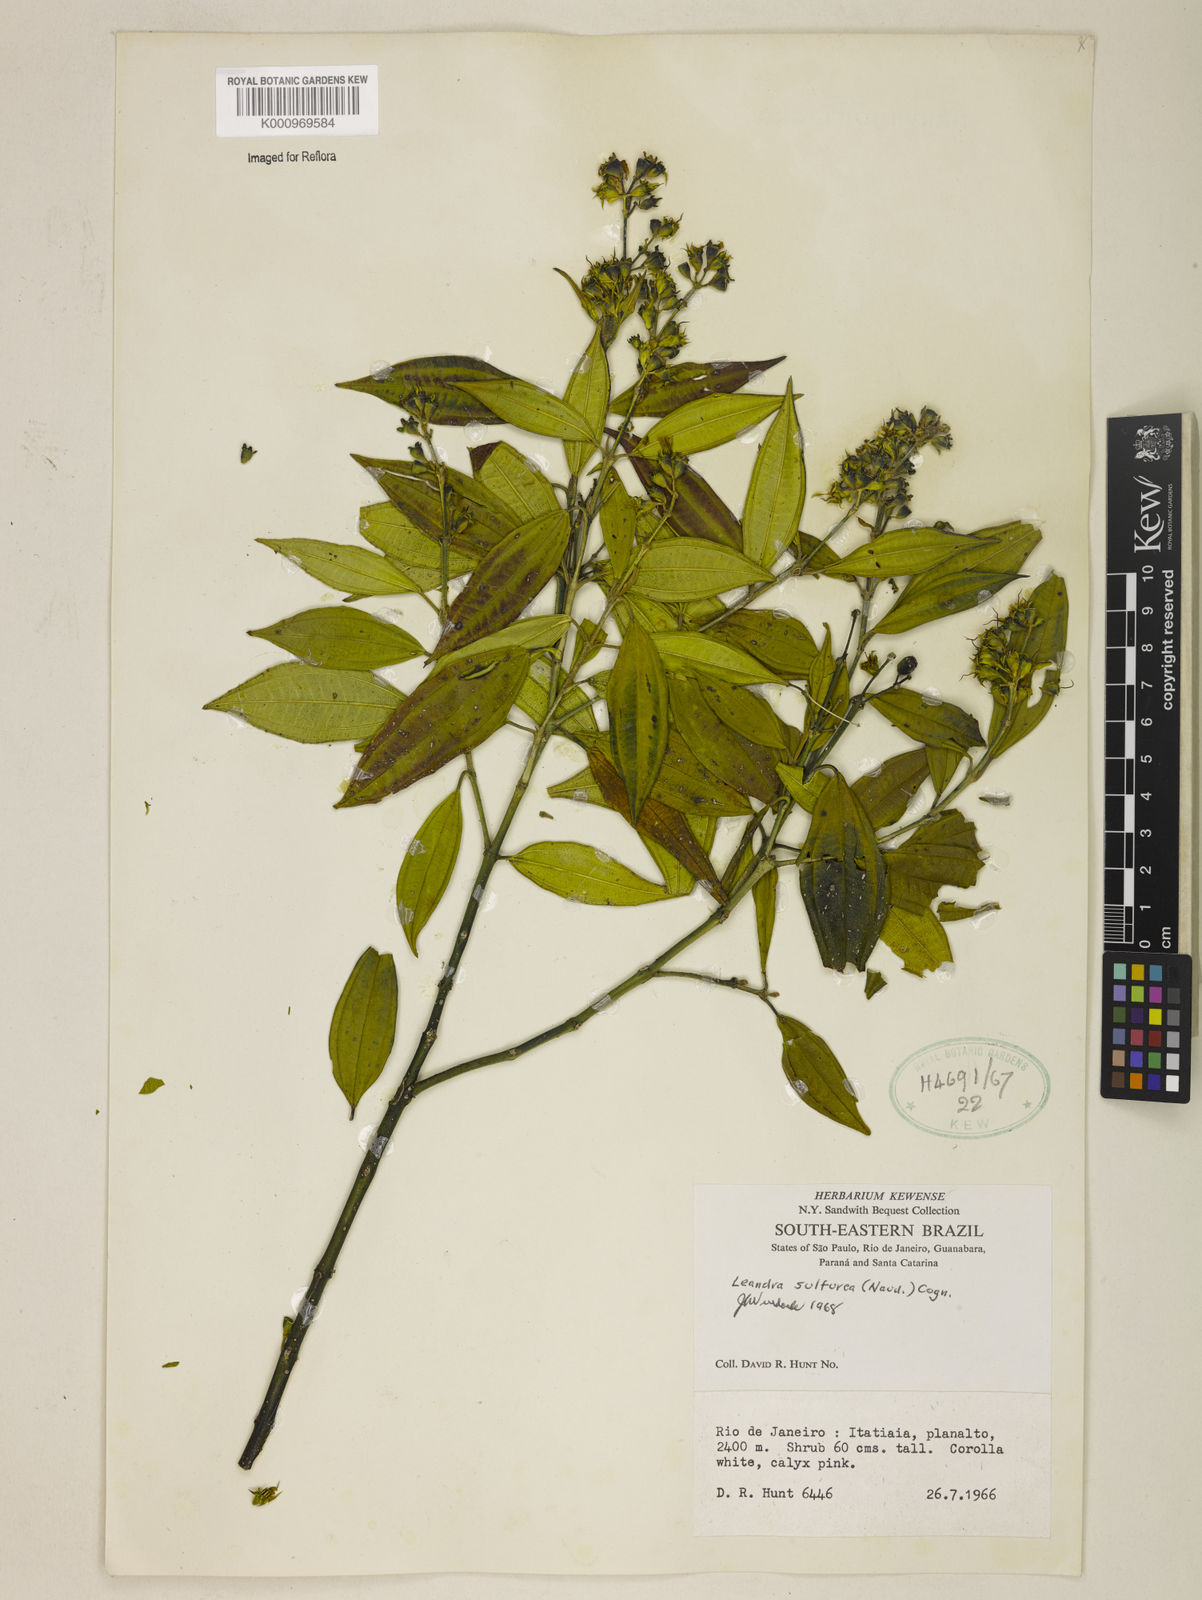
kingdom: Plantae
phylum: Tracheophyta
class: Magnoliopsida
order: Myrtales
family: Melastomataceae
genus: Miconia
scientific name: Miconia sulfurea
